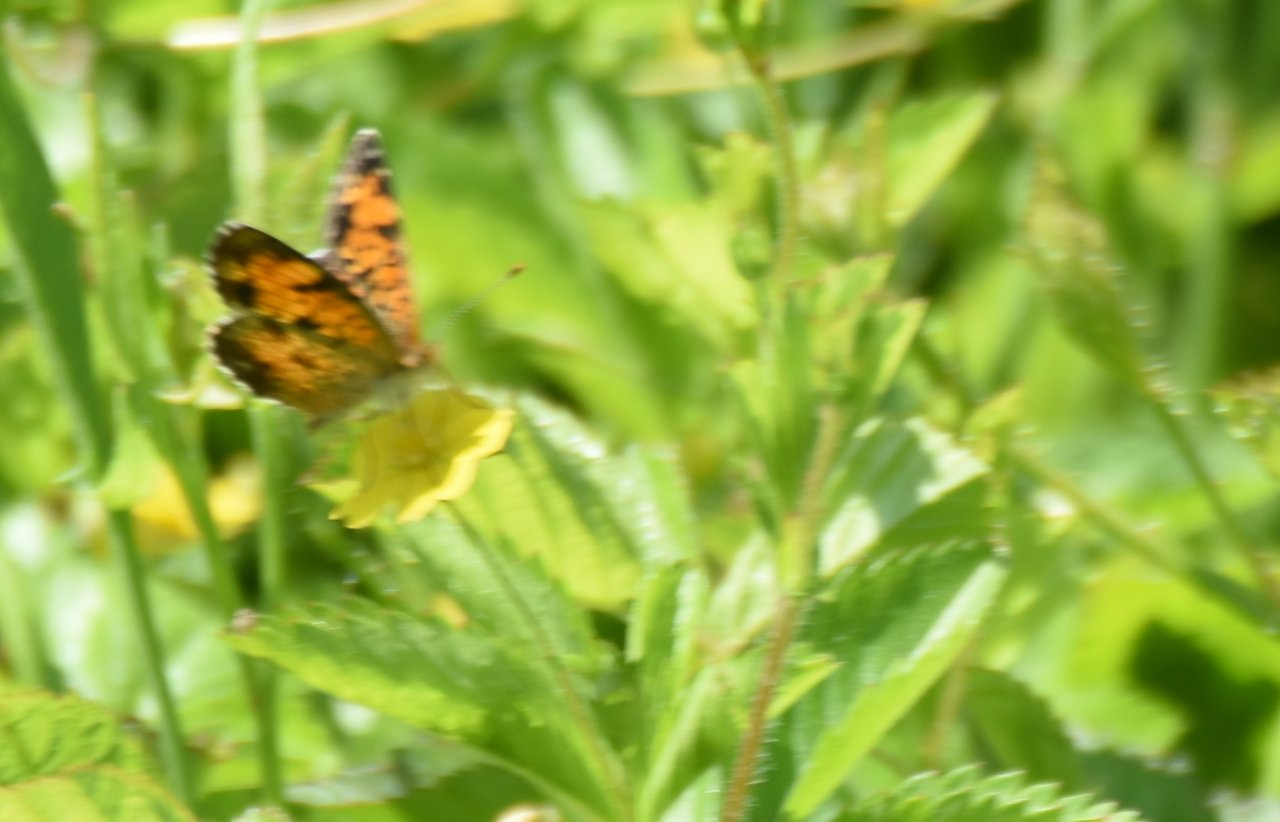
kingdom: Animalia
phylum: Arthropoda
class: Insecta
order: Lepidoptera
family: Nymphalidae
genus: Phyciodes
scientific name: Phyciodes tharos
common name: Pearl Crescent
